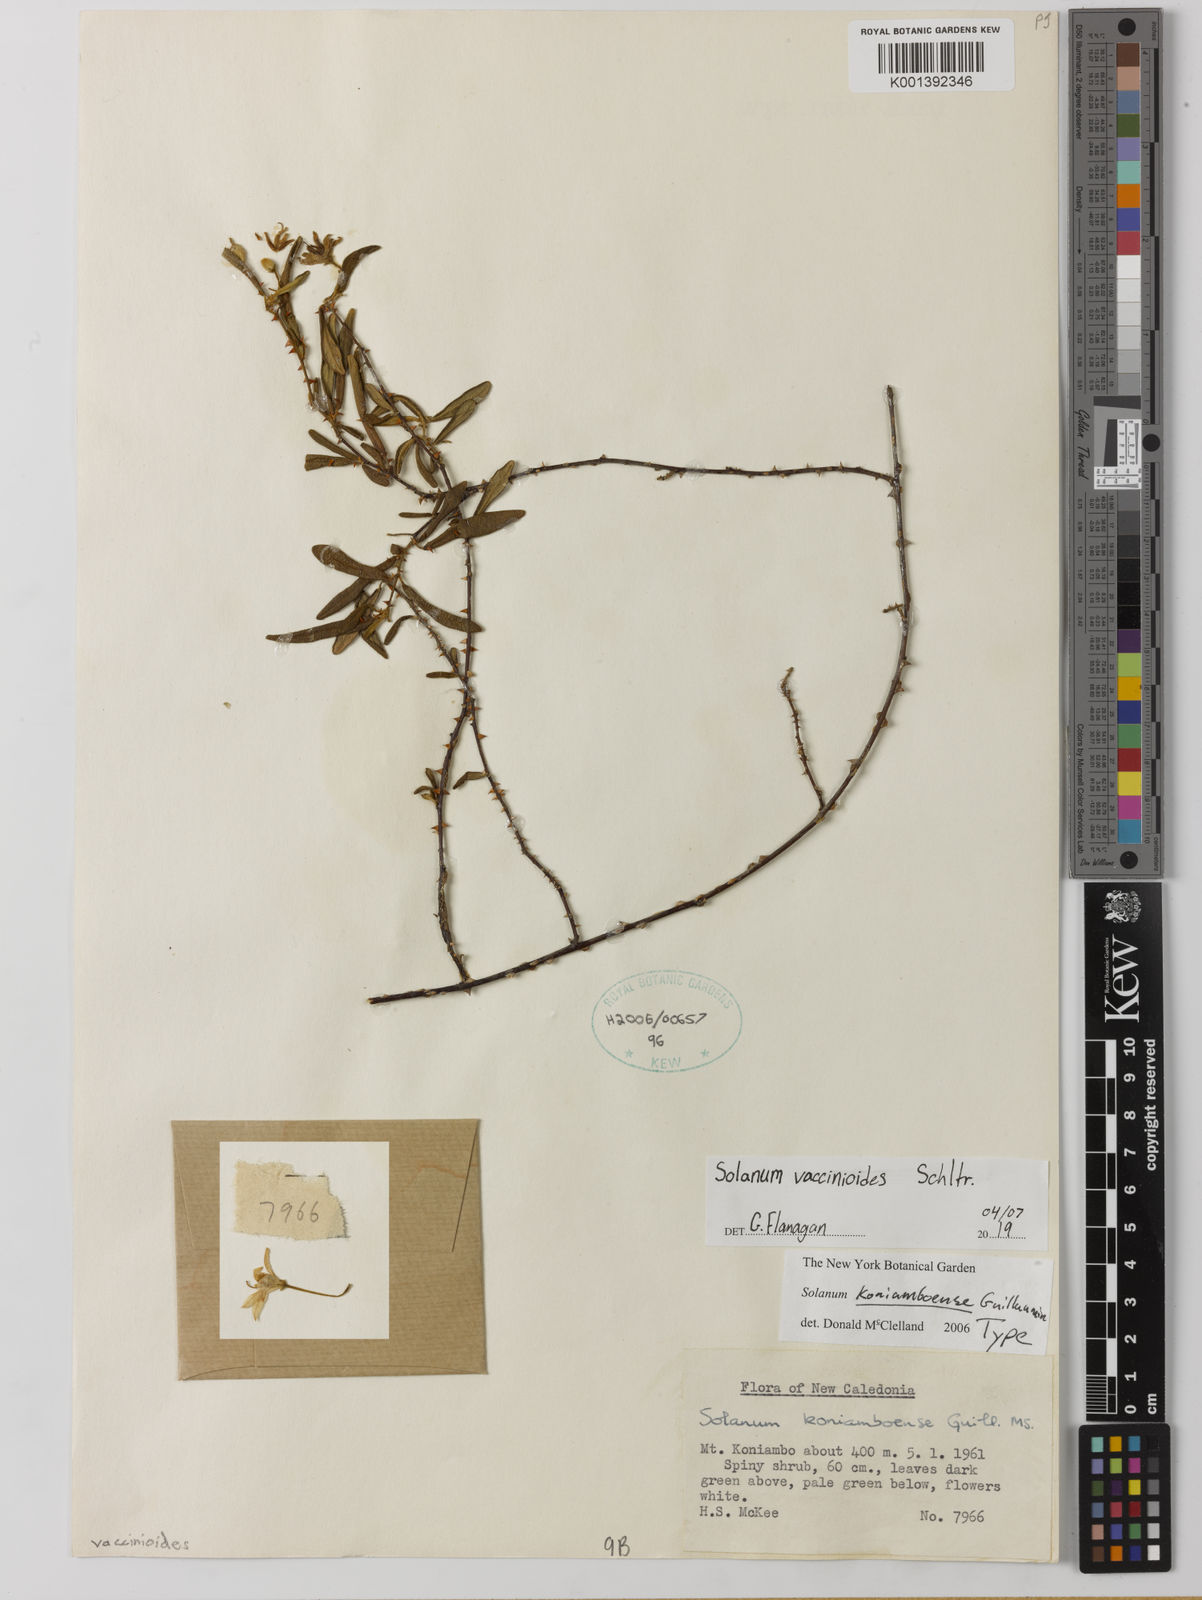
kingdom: Plantae
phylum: Tracheophyta
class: Magnoliopsida
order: Solanales
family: Solanaceae
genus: Solanum
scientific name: Solanum vaccinioides
